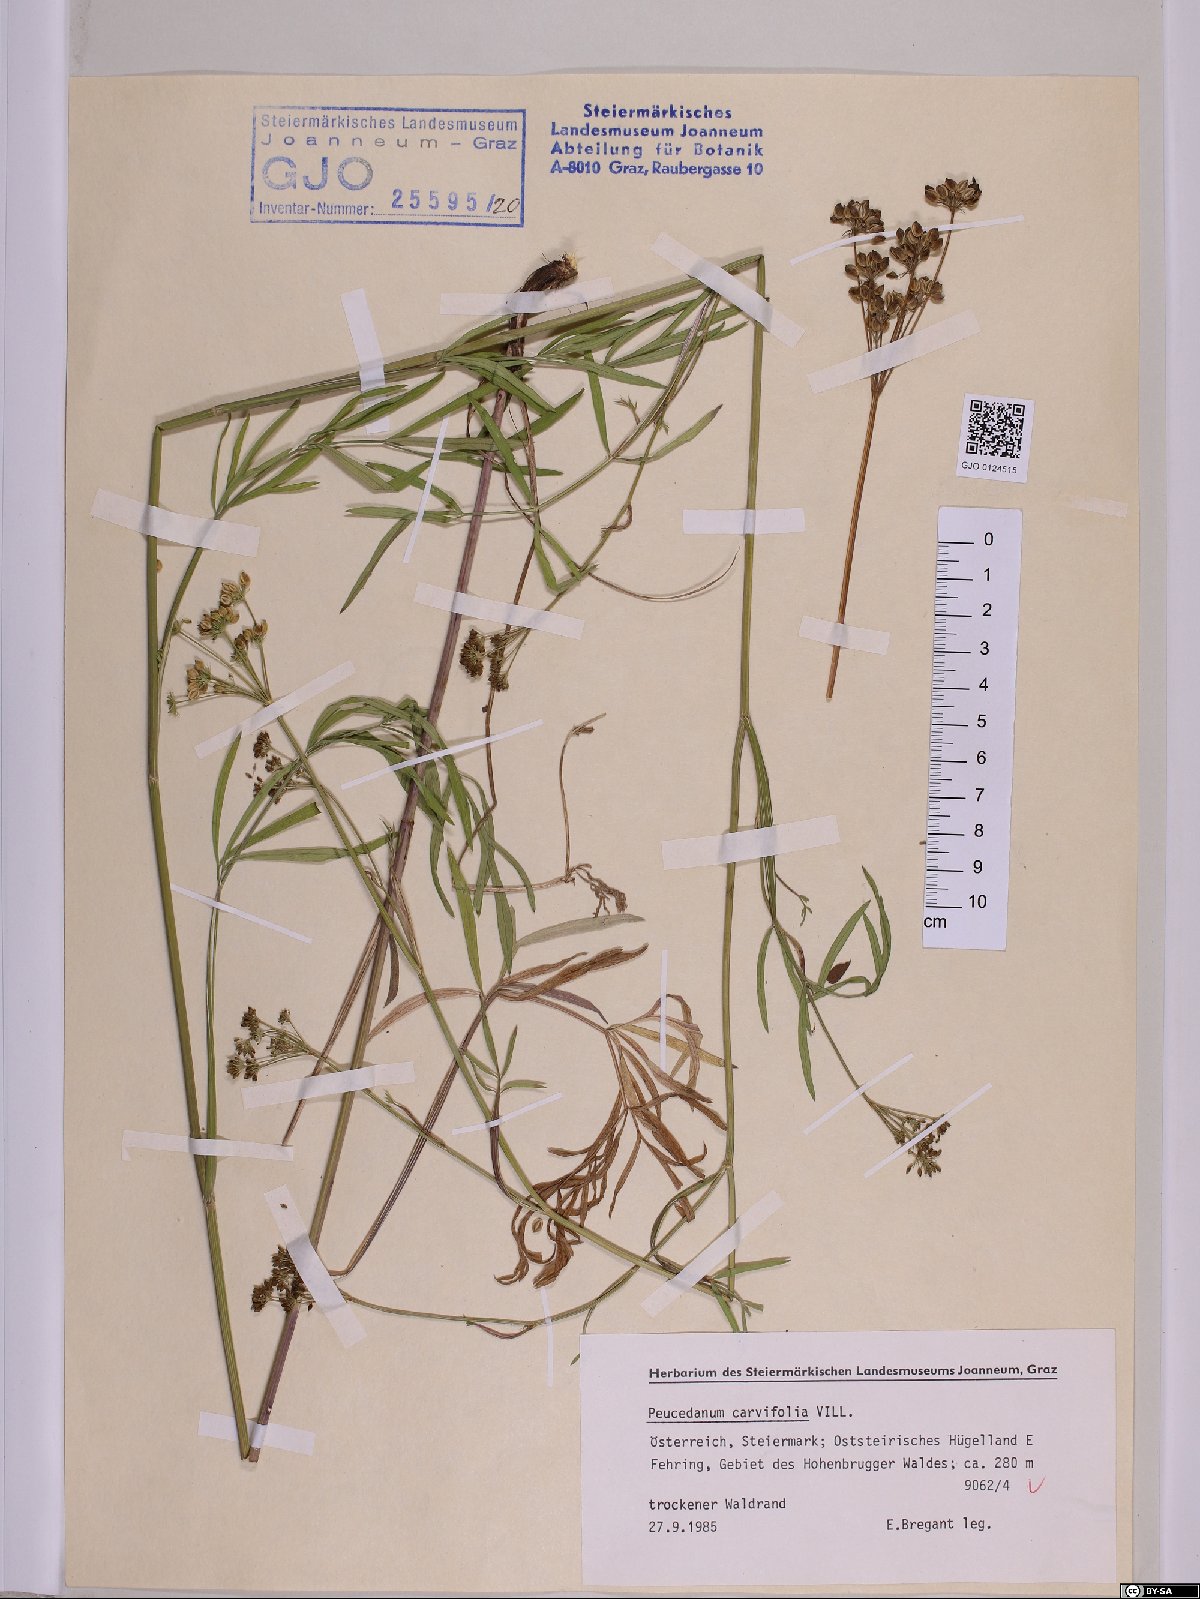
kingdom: Plantae
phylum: Tracheophyta
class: Magnoliopsida
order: Apiales
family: Apiaceae
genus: Dichoropetalum
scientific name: Dichoropetalum carvifolia
